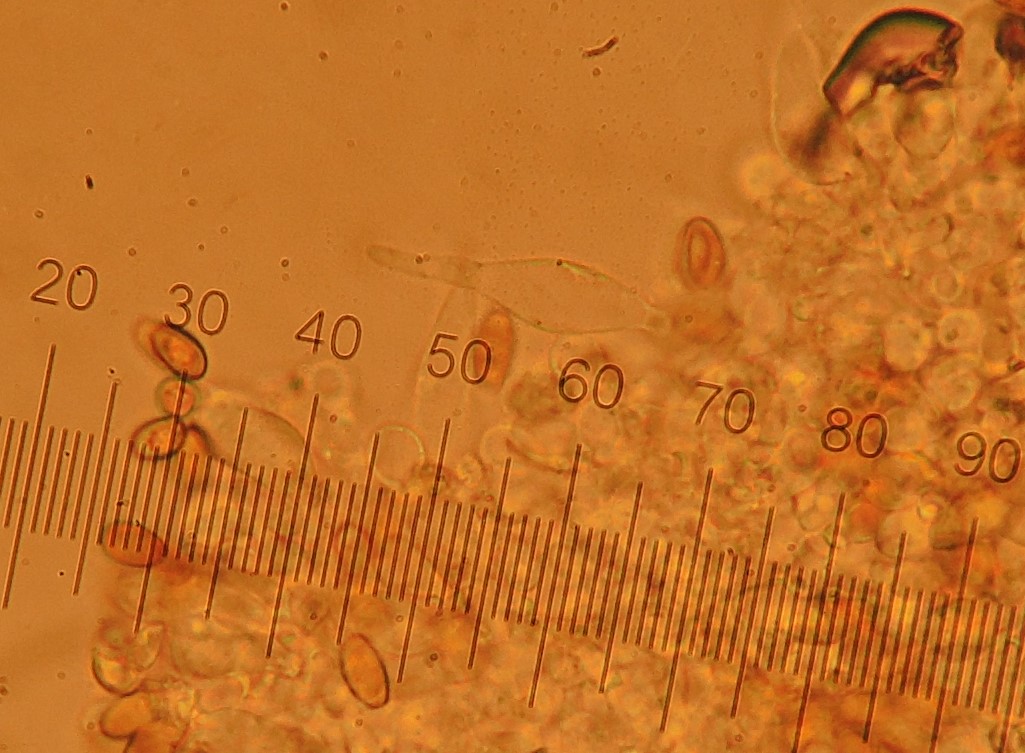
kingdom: Fungi
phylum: Basidiomycota
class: Agaricomycetes
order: Agaricales
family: Bolbitiaceae
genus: Conocybe
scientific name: Conocybe rugosa
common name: giftig dansehat
